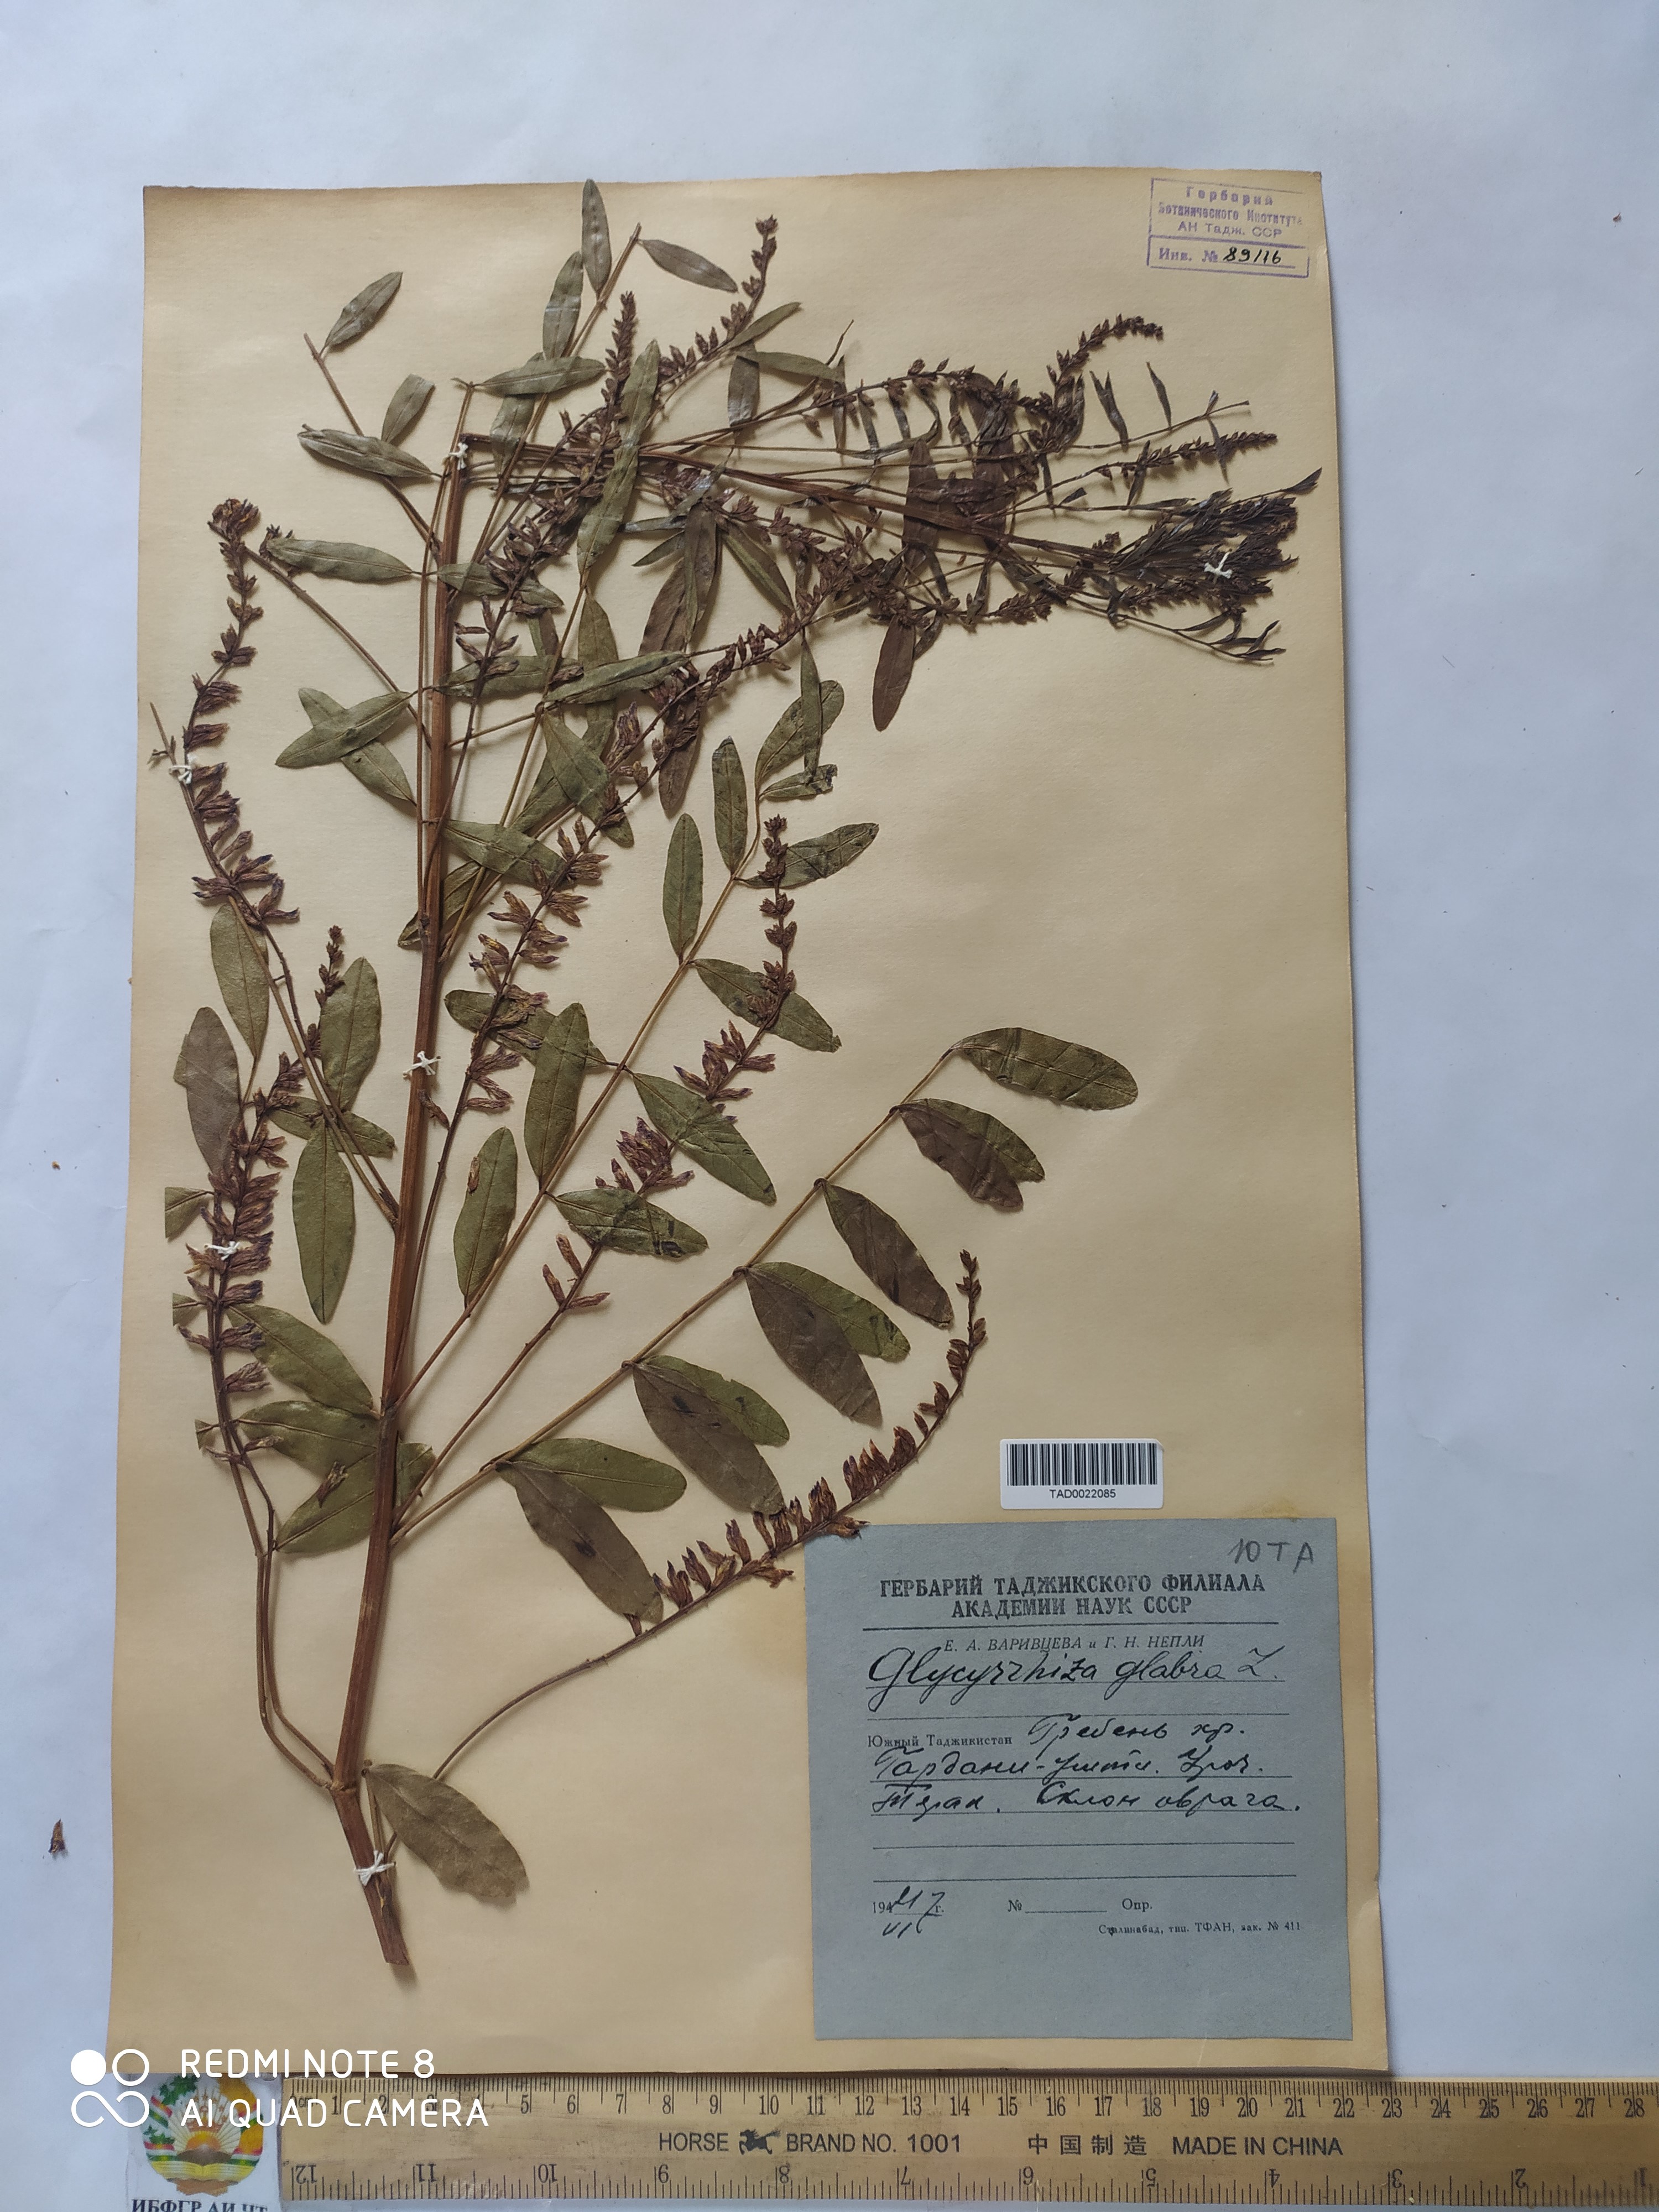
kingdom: Plantae
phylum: Tracheophyta
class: Magnoliopsida
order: Fabales
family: Fabaceae
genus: Glycyrrhiza
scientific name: Glycyrrhiza glabra
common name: Liquorice
